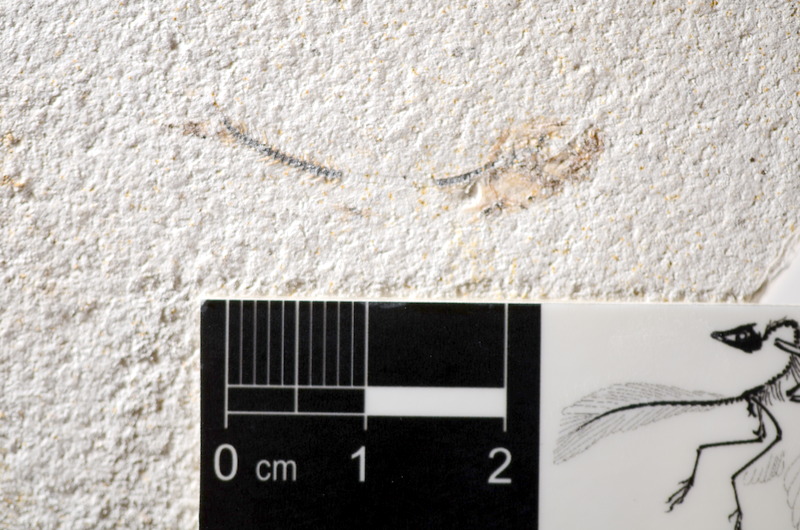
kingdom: Animalia
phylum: Chordata
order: Salmoniformes
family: Orthogonikleithridae
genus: Orthogonikleithrus
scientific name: Orthogonikleithrus hoelli
